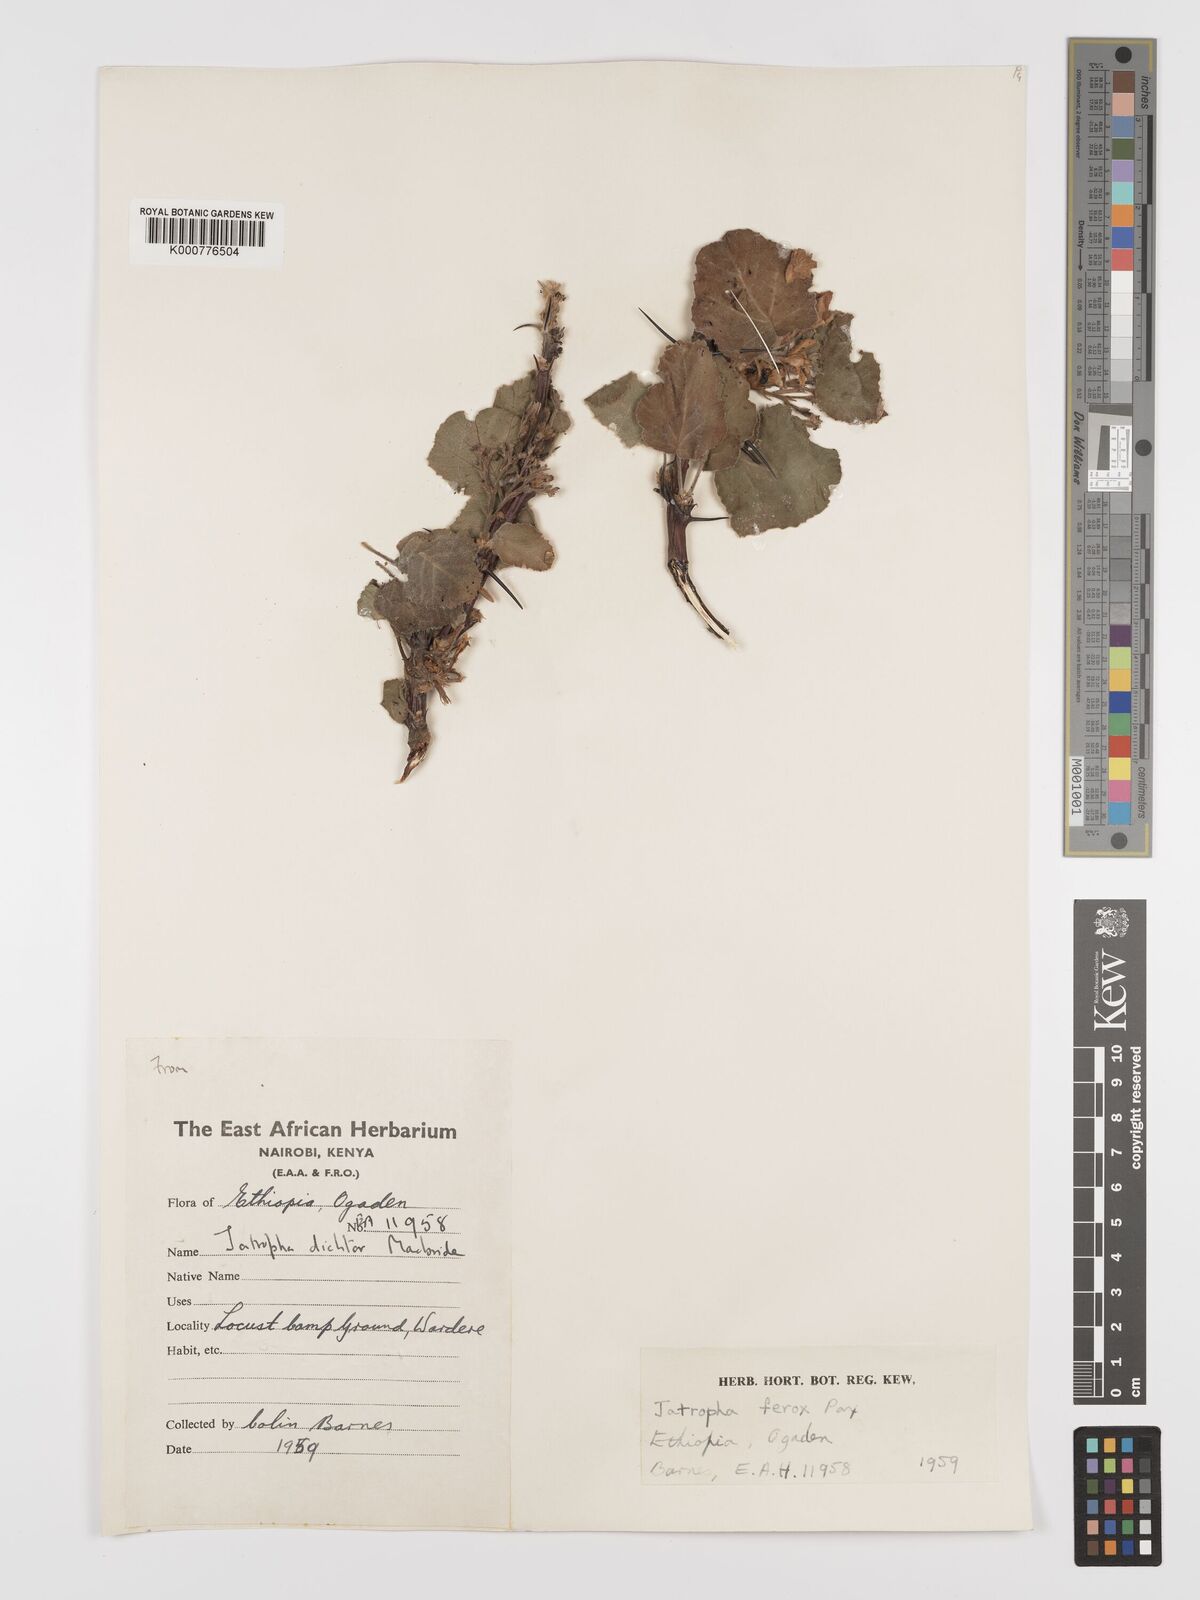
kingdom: Plantae
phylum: Tracheophyta
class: Magnoliopsida
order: Malpighiales
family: Euphorbiaceae
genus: Jatropha
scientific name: Jatropha dichtar
